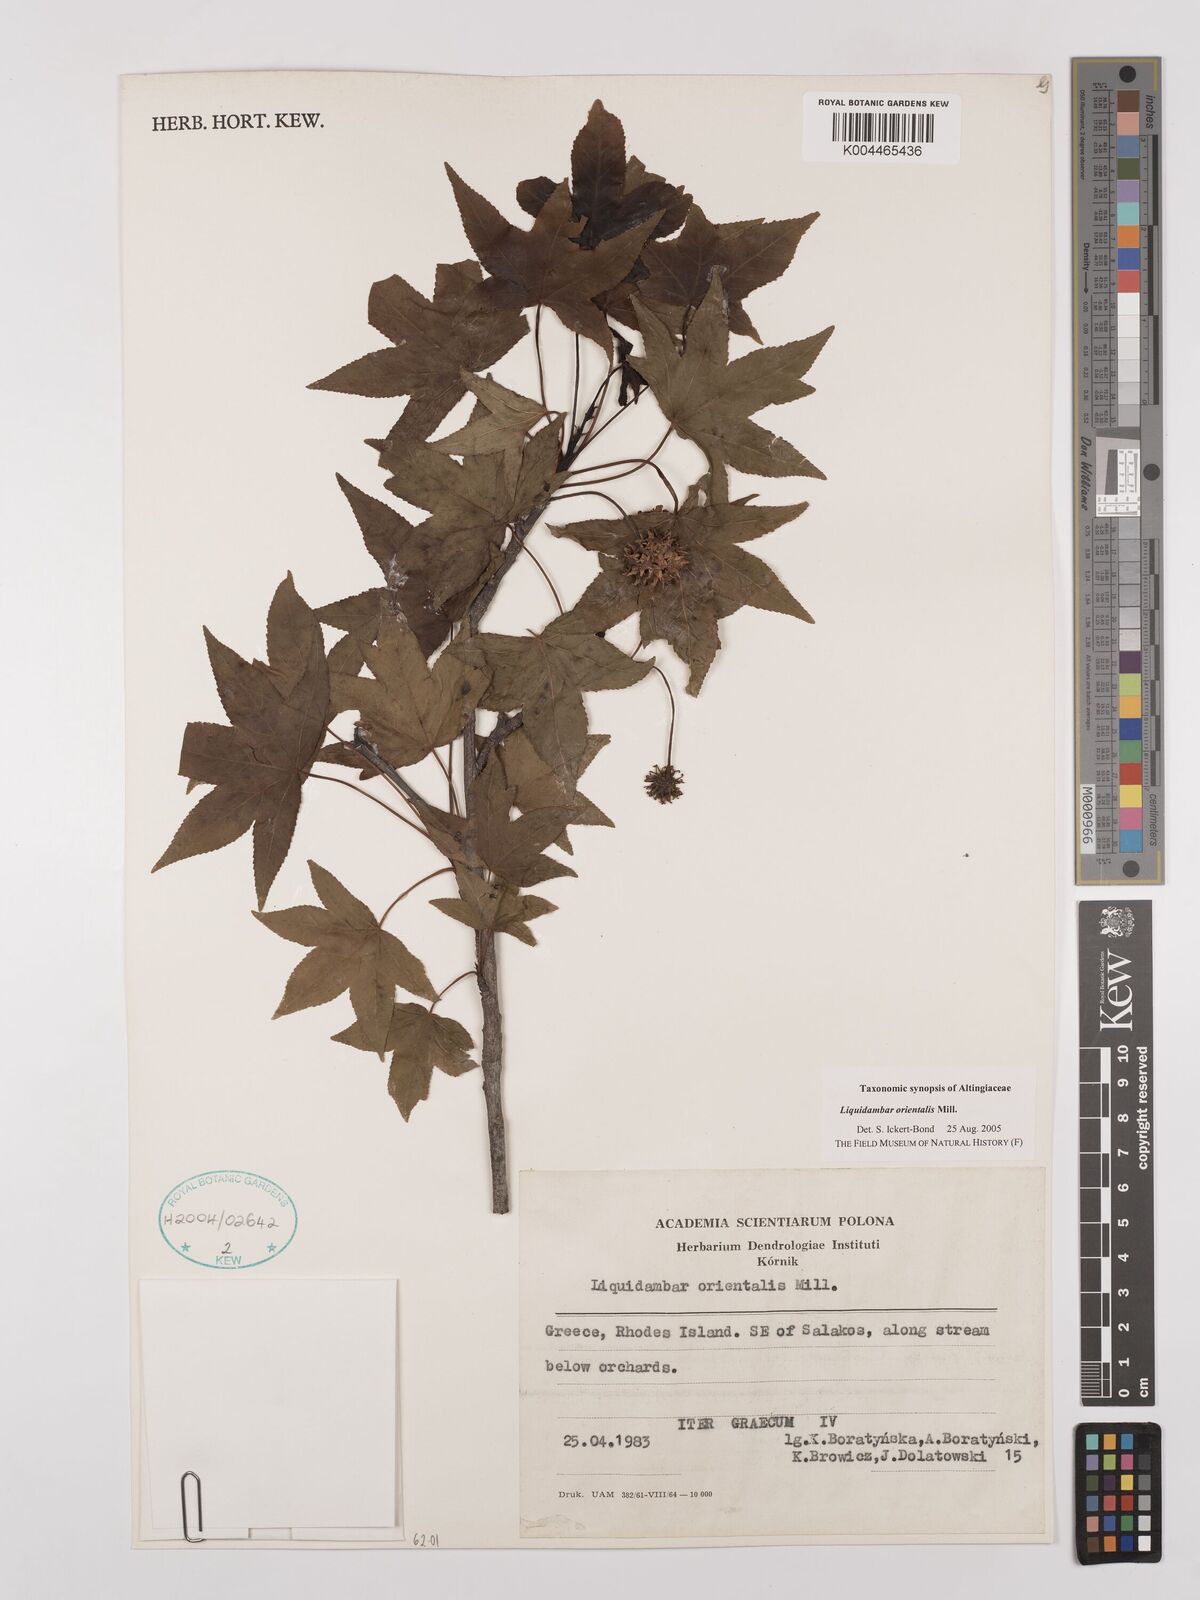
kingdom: Plantae
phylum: Tracheophyta
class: Magnoliopsida
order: Saxifragales
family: Altingiaceae
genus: Liquidambar
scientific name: Liquidambar orientalis
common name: Oriental sweetgum
